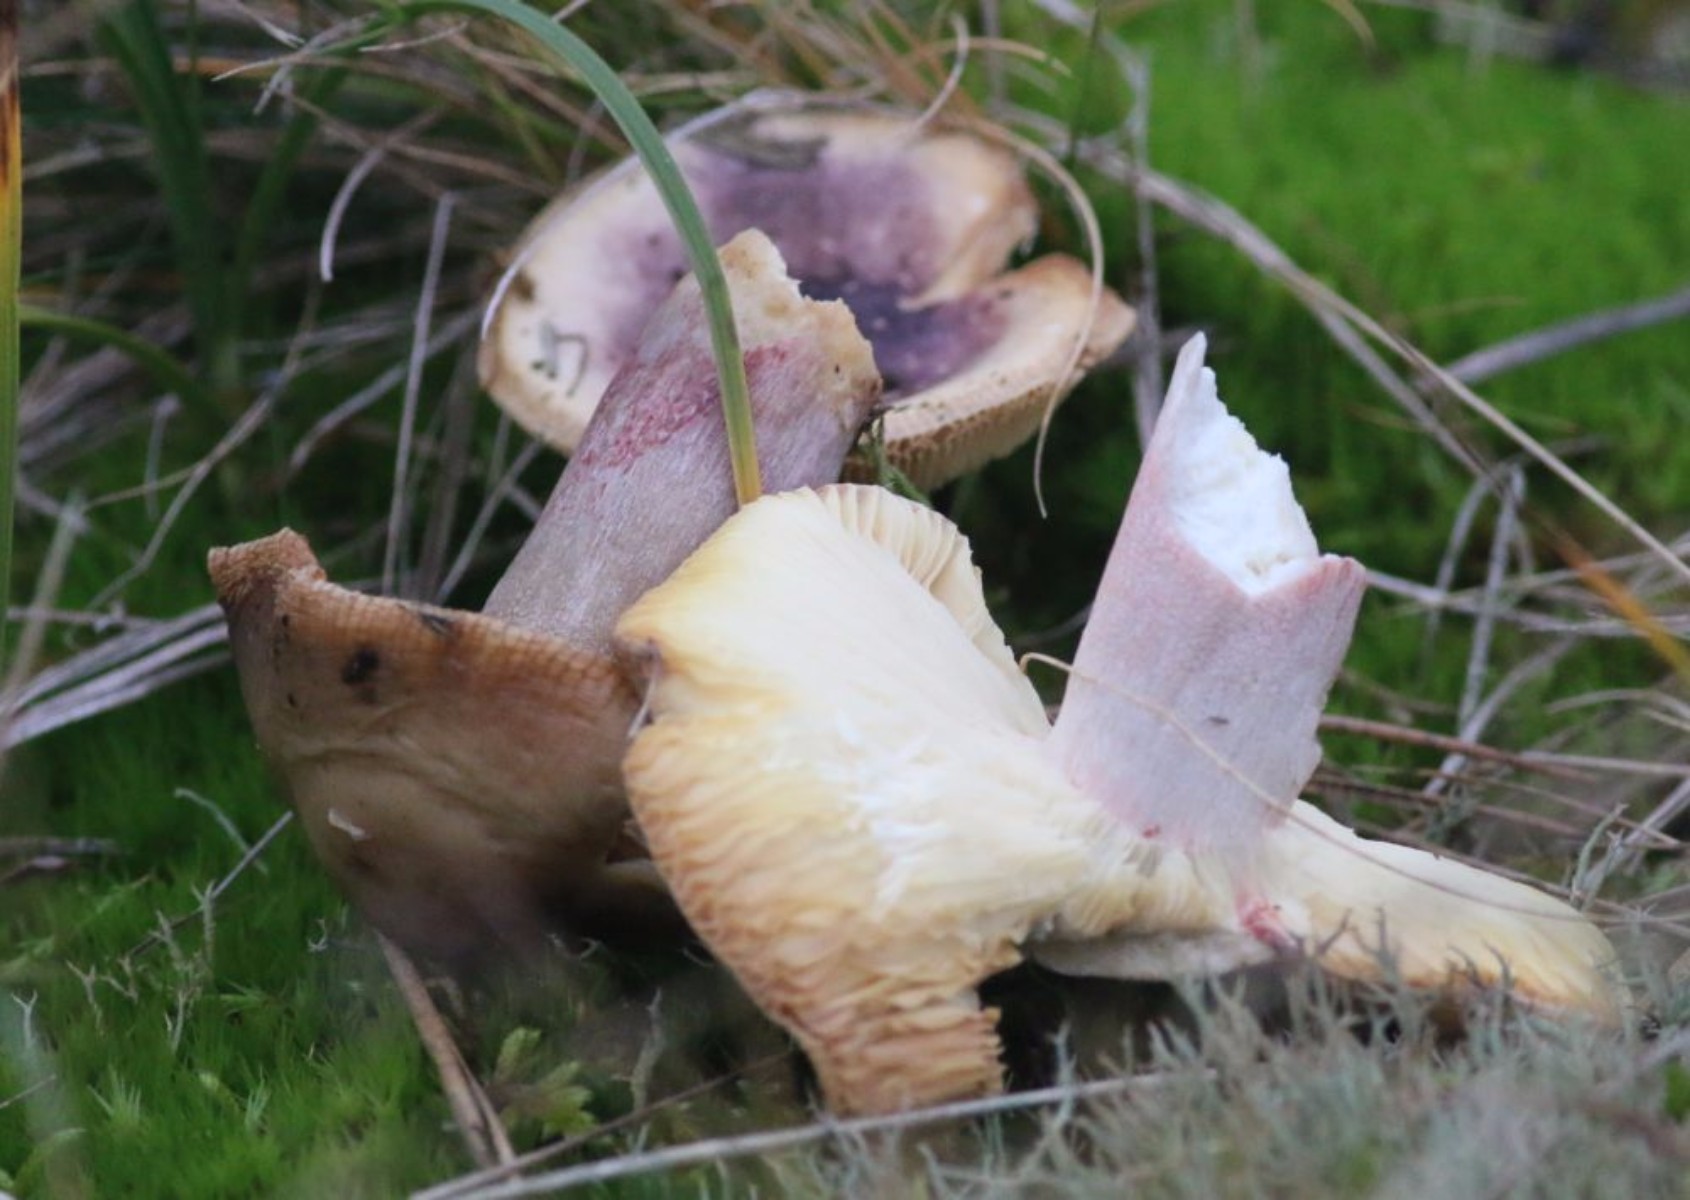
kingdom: Fungi
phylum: Basidiomycota
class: Agaricomycetes
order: Russulales
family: Russulaceae
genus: Russula
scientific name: Russula
